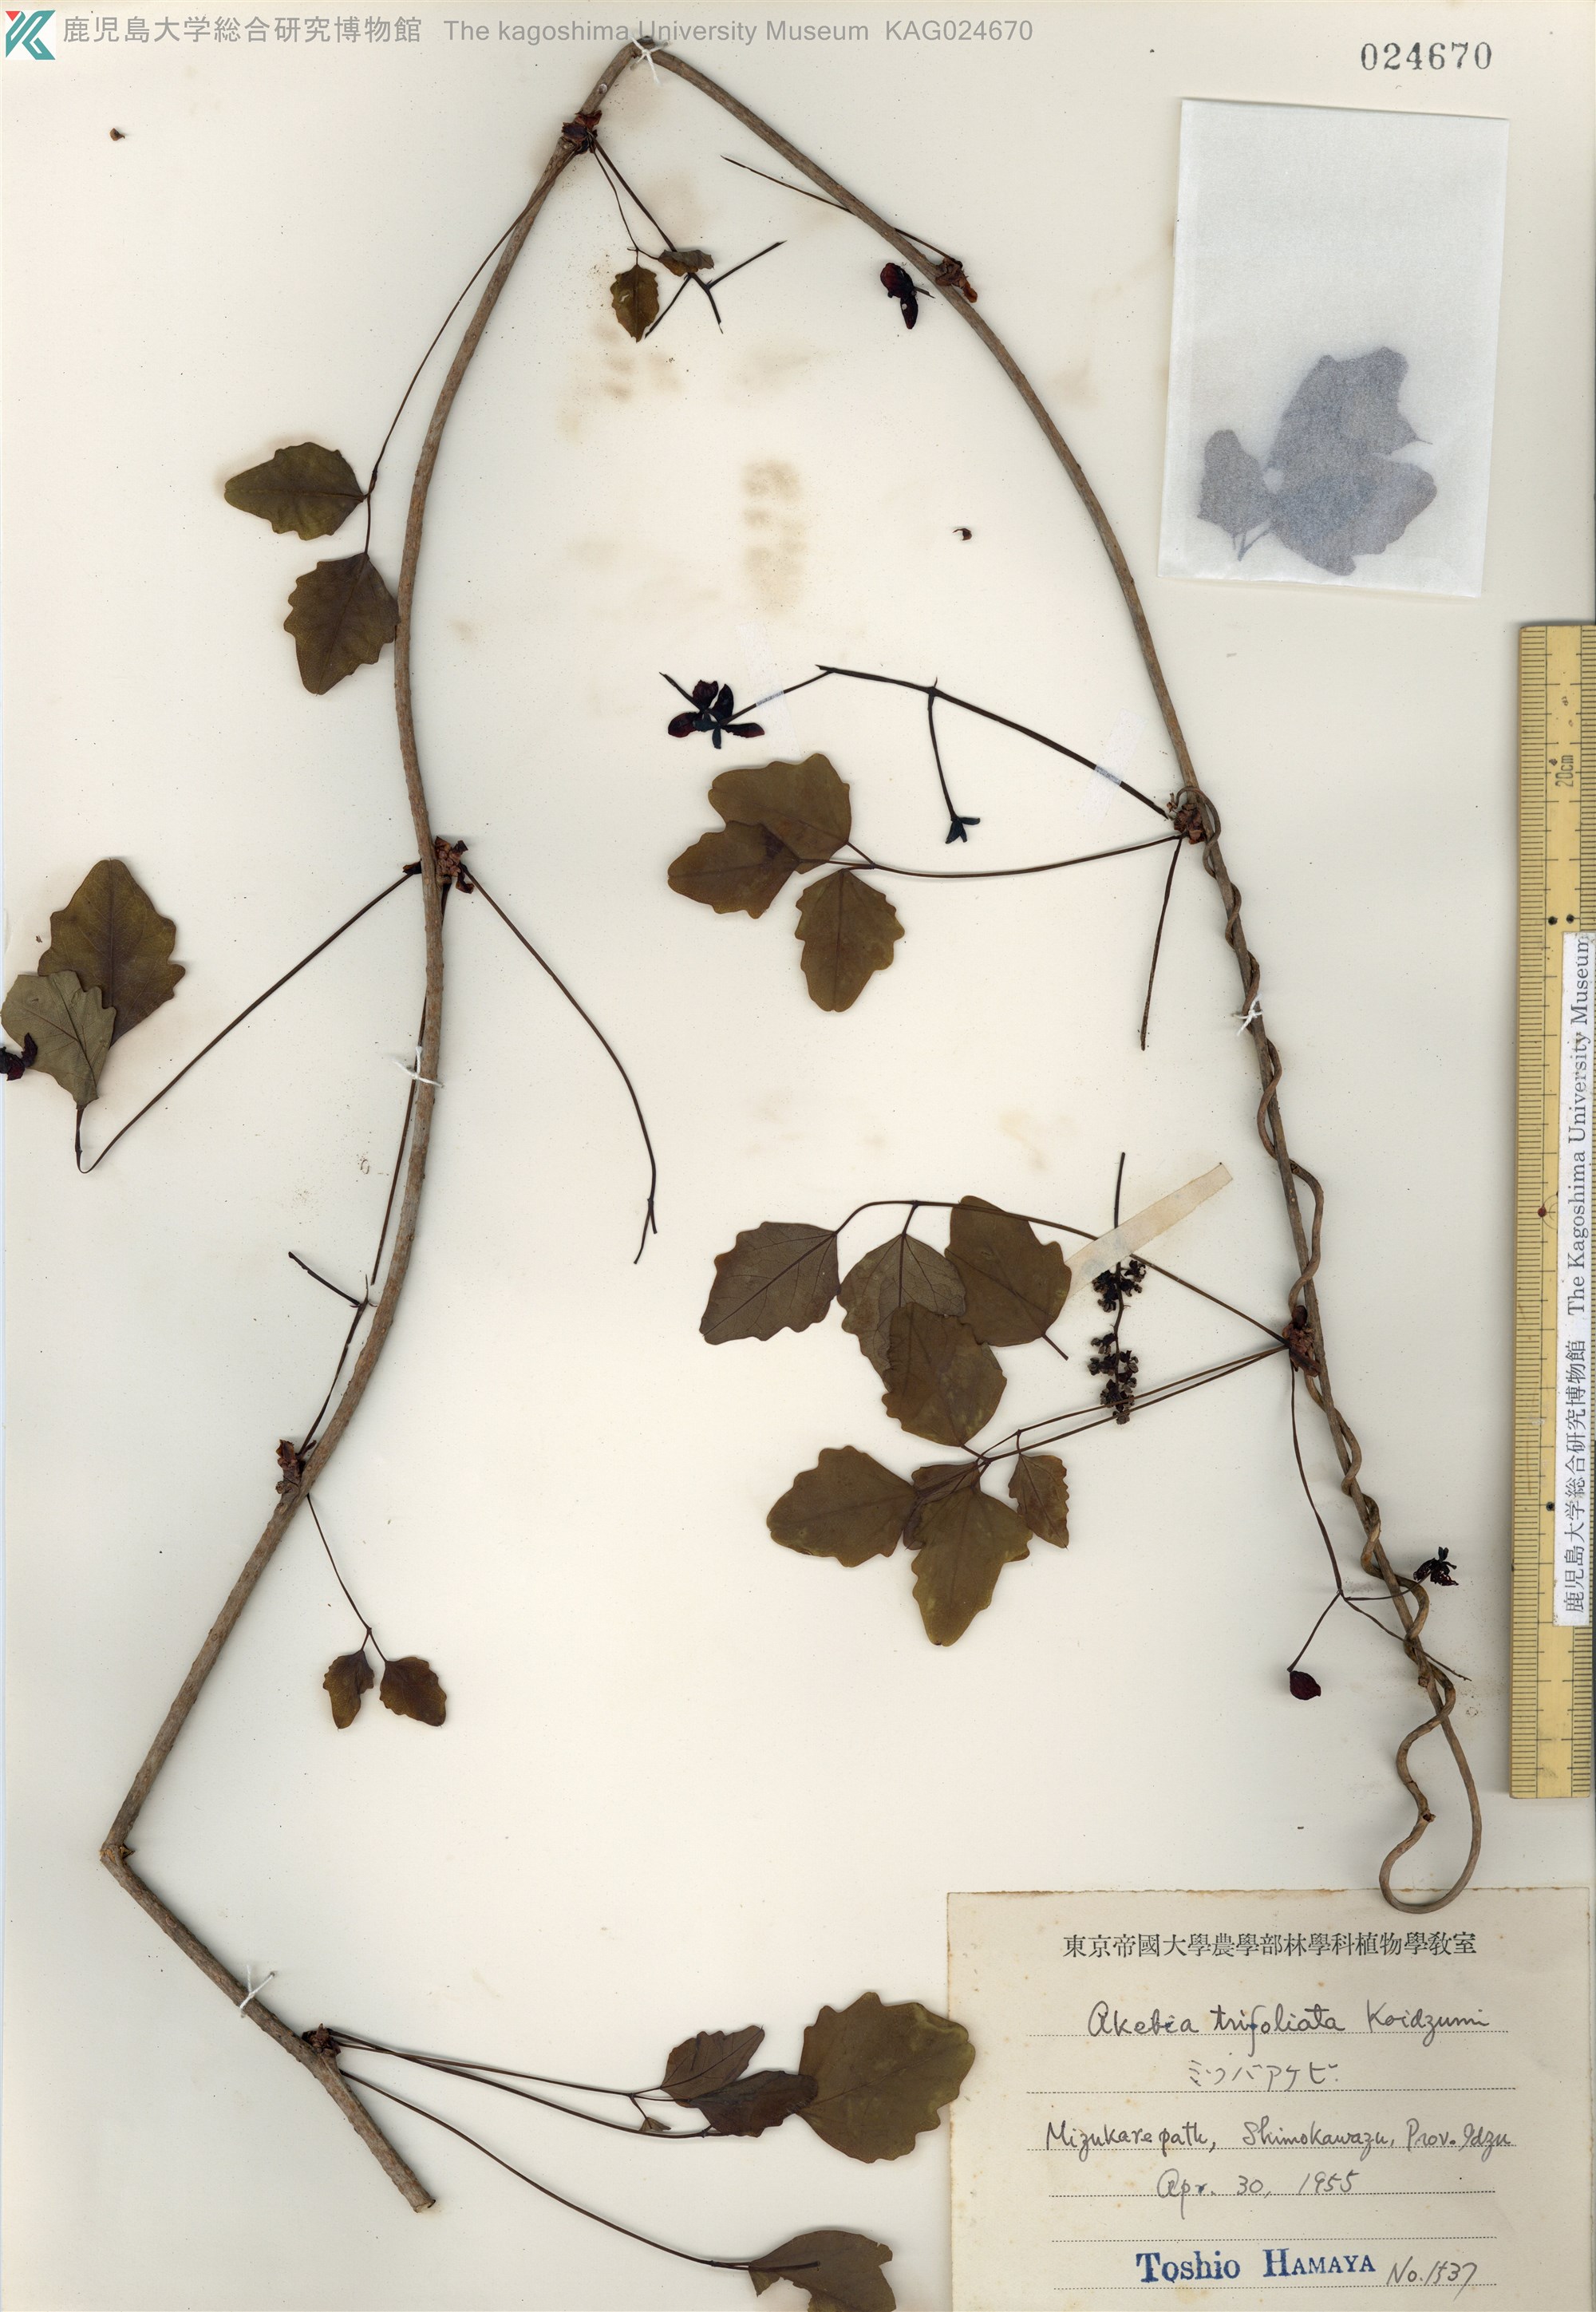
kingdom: Plantae
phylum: Tracheophyta
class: Magnoliopsida
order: Ranunculales
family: Lardizabalaceae
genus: Akebia
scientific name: Akebia trifoliata
